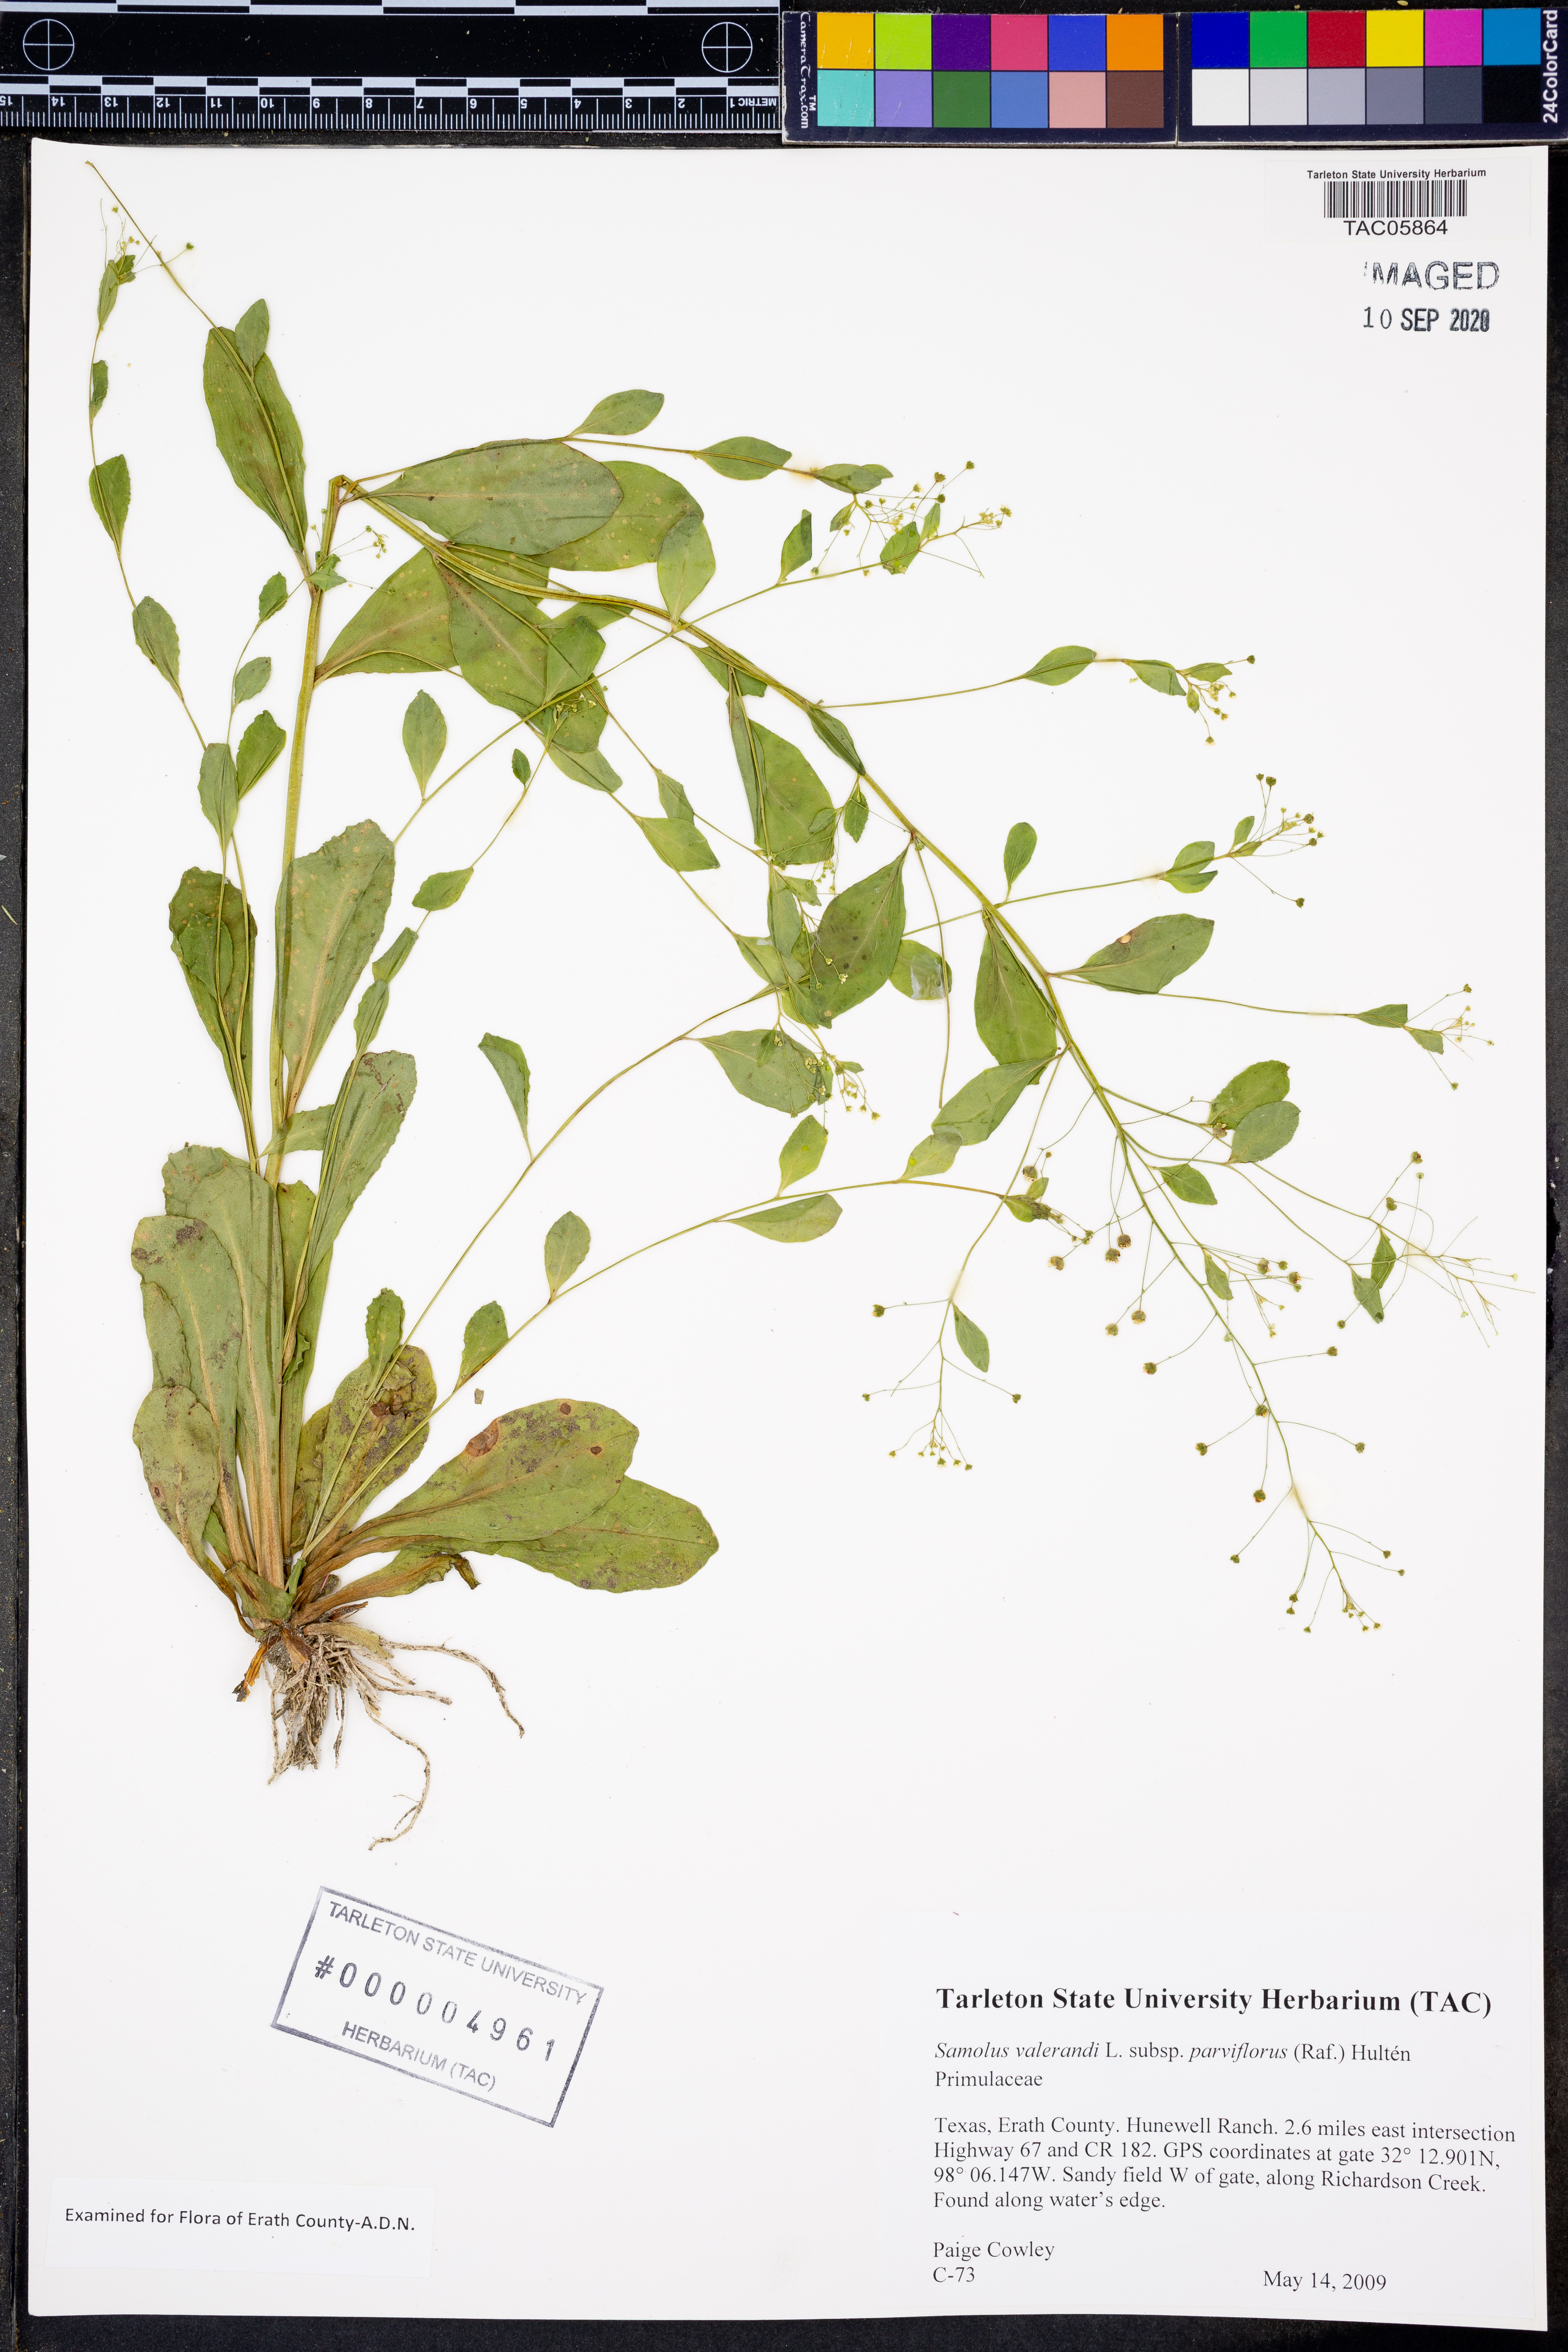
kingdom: Plantae
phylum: Tracheophyta
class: Magnoliopsida
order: Ericales
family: Primulaceae
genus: Samolus
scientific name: Samolus parviflorus
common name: False water pimpernel
